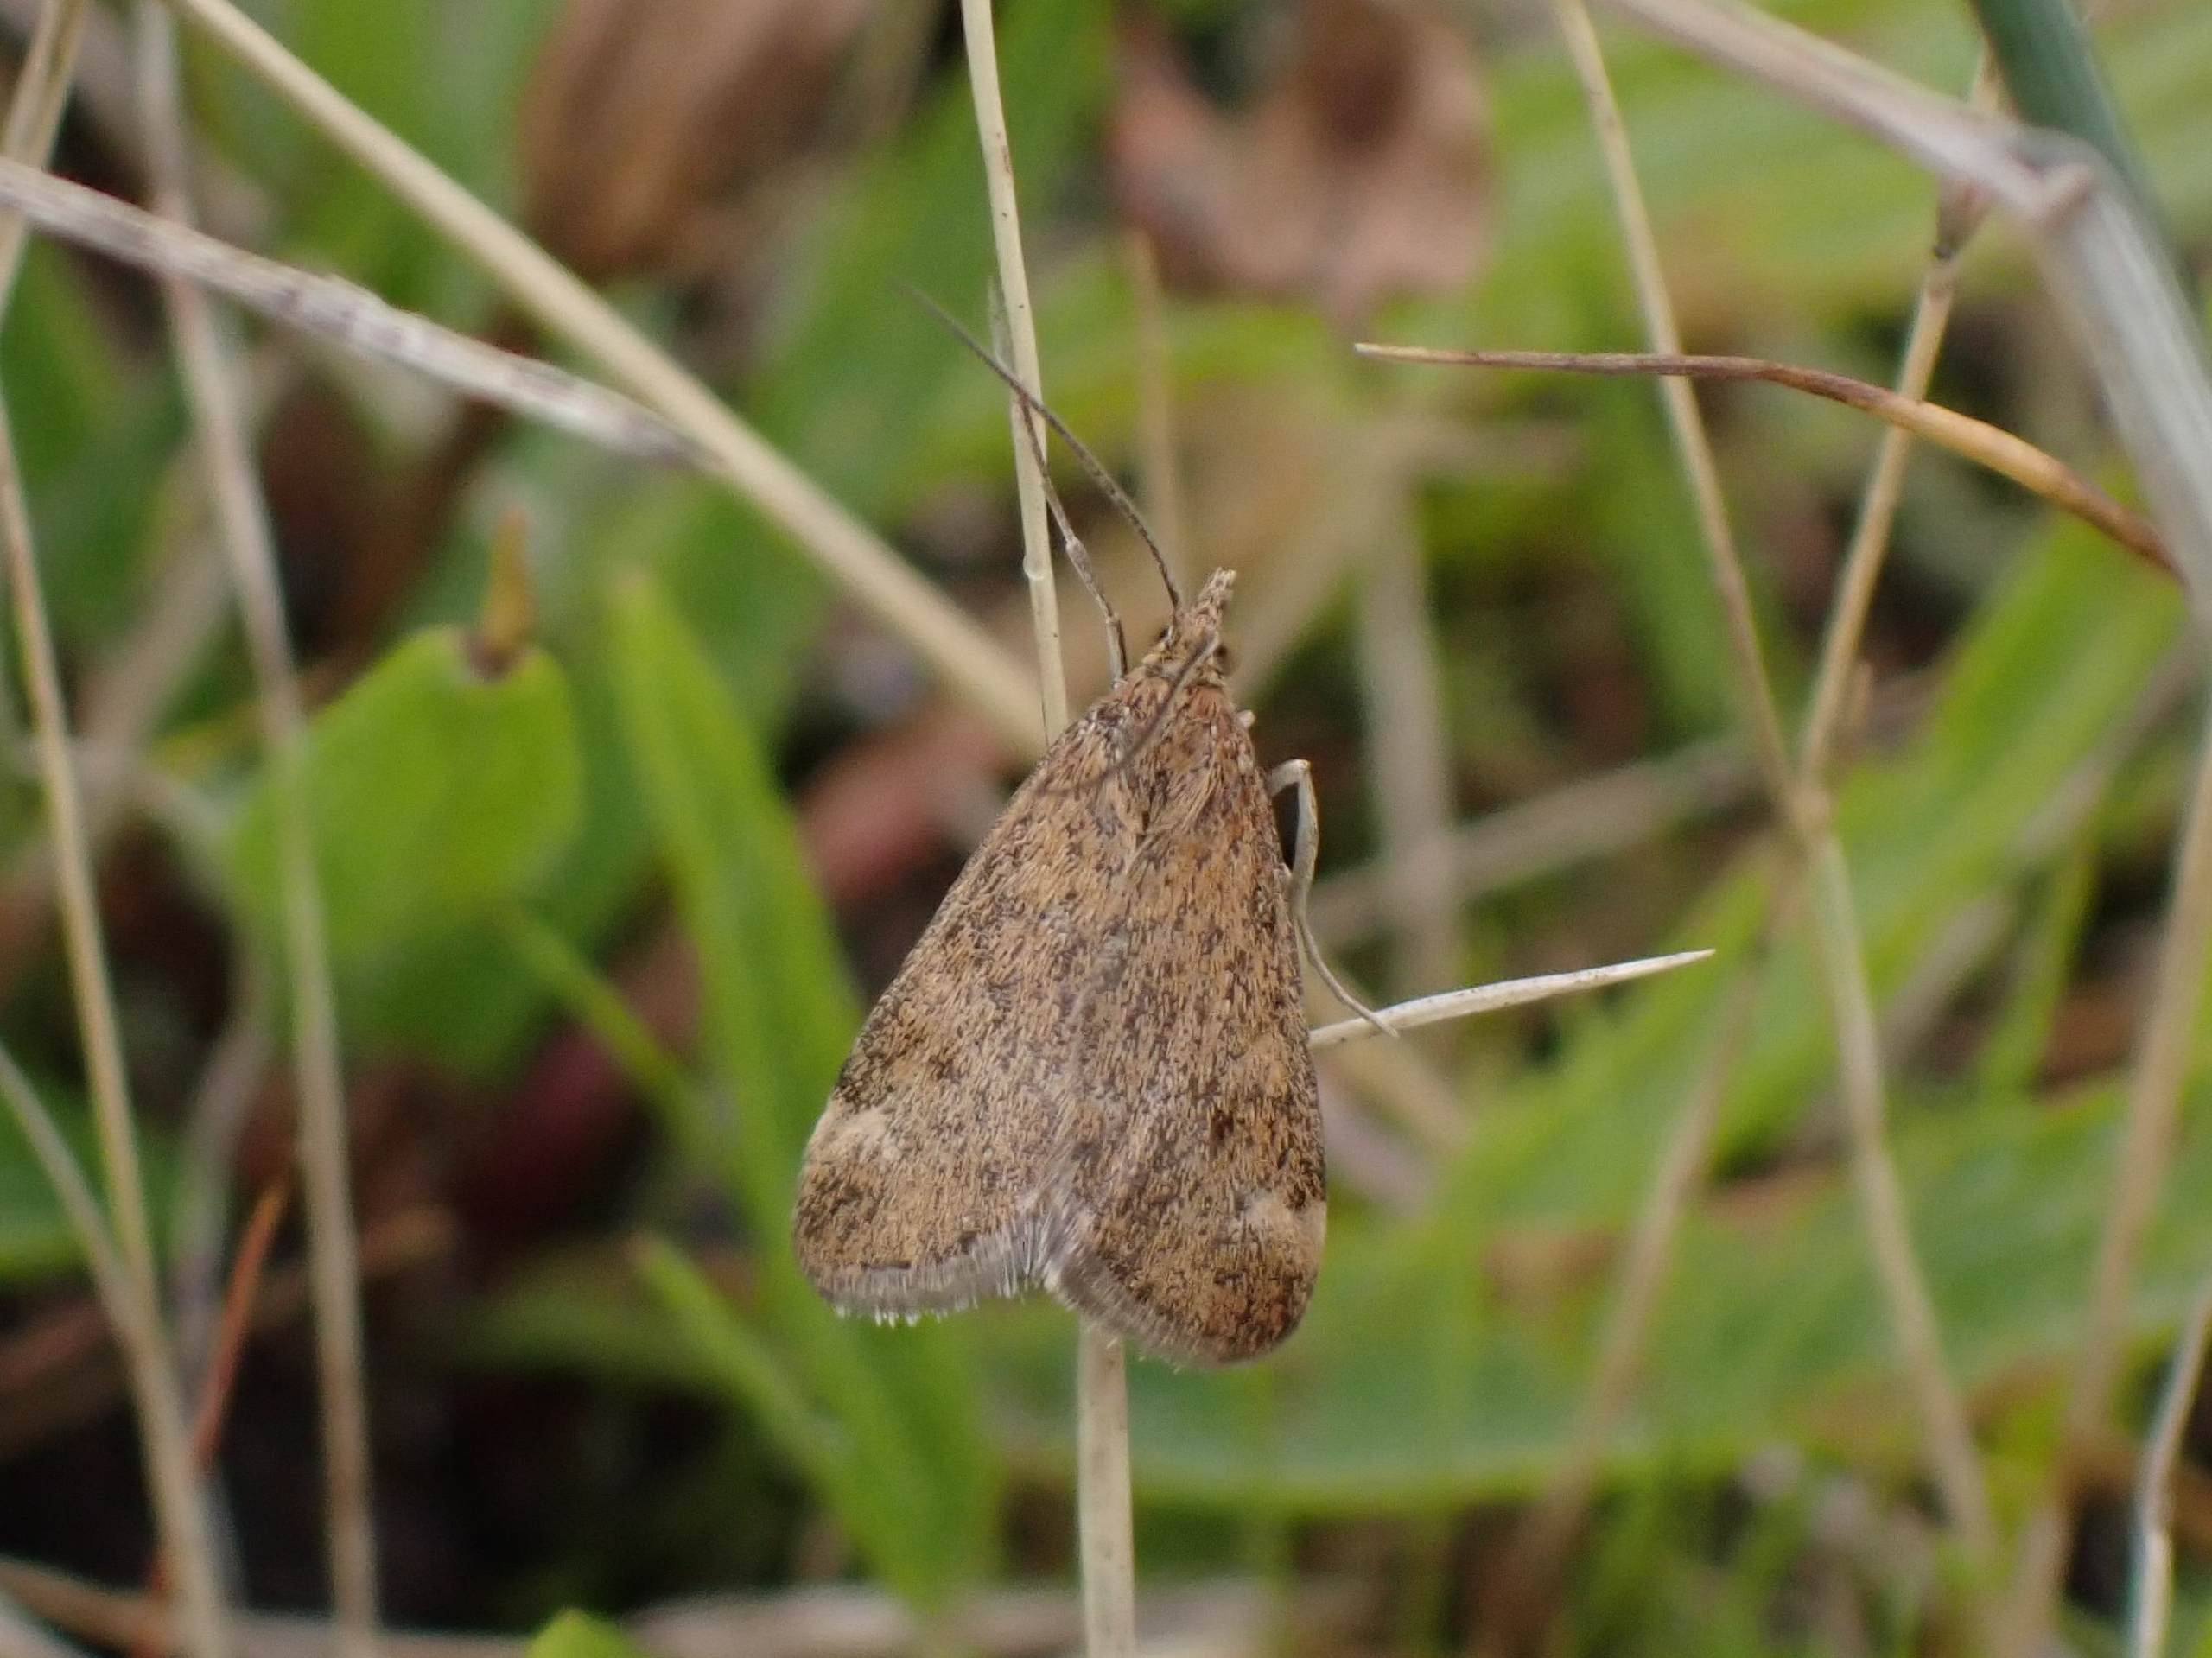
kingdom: Animalia
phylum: Arthropoda
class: Insecta
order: Lepidoptera
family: Crambidae
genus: Pyrausta
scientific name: Pyrausta despicata
